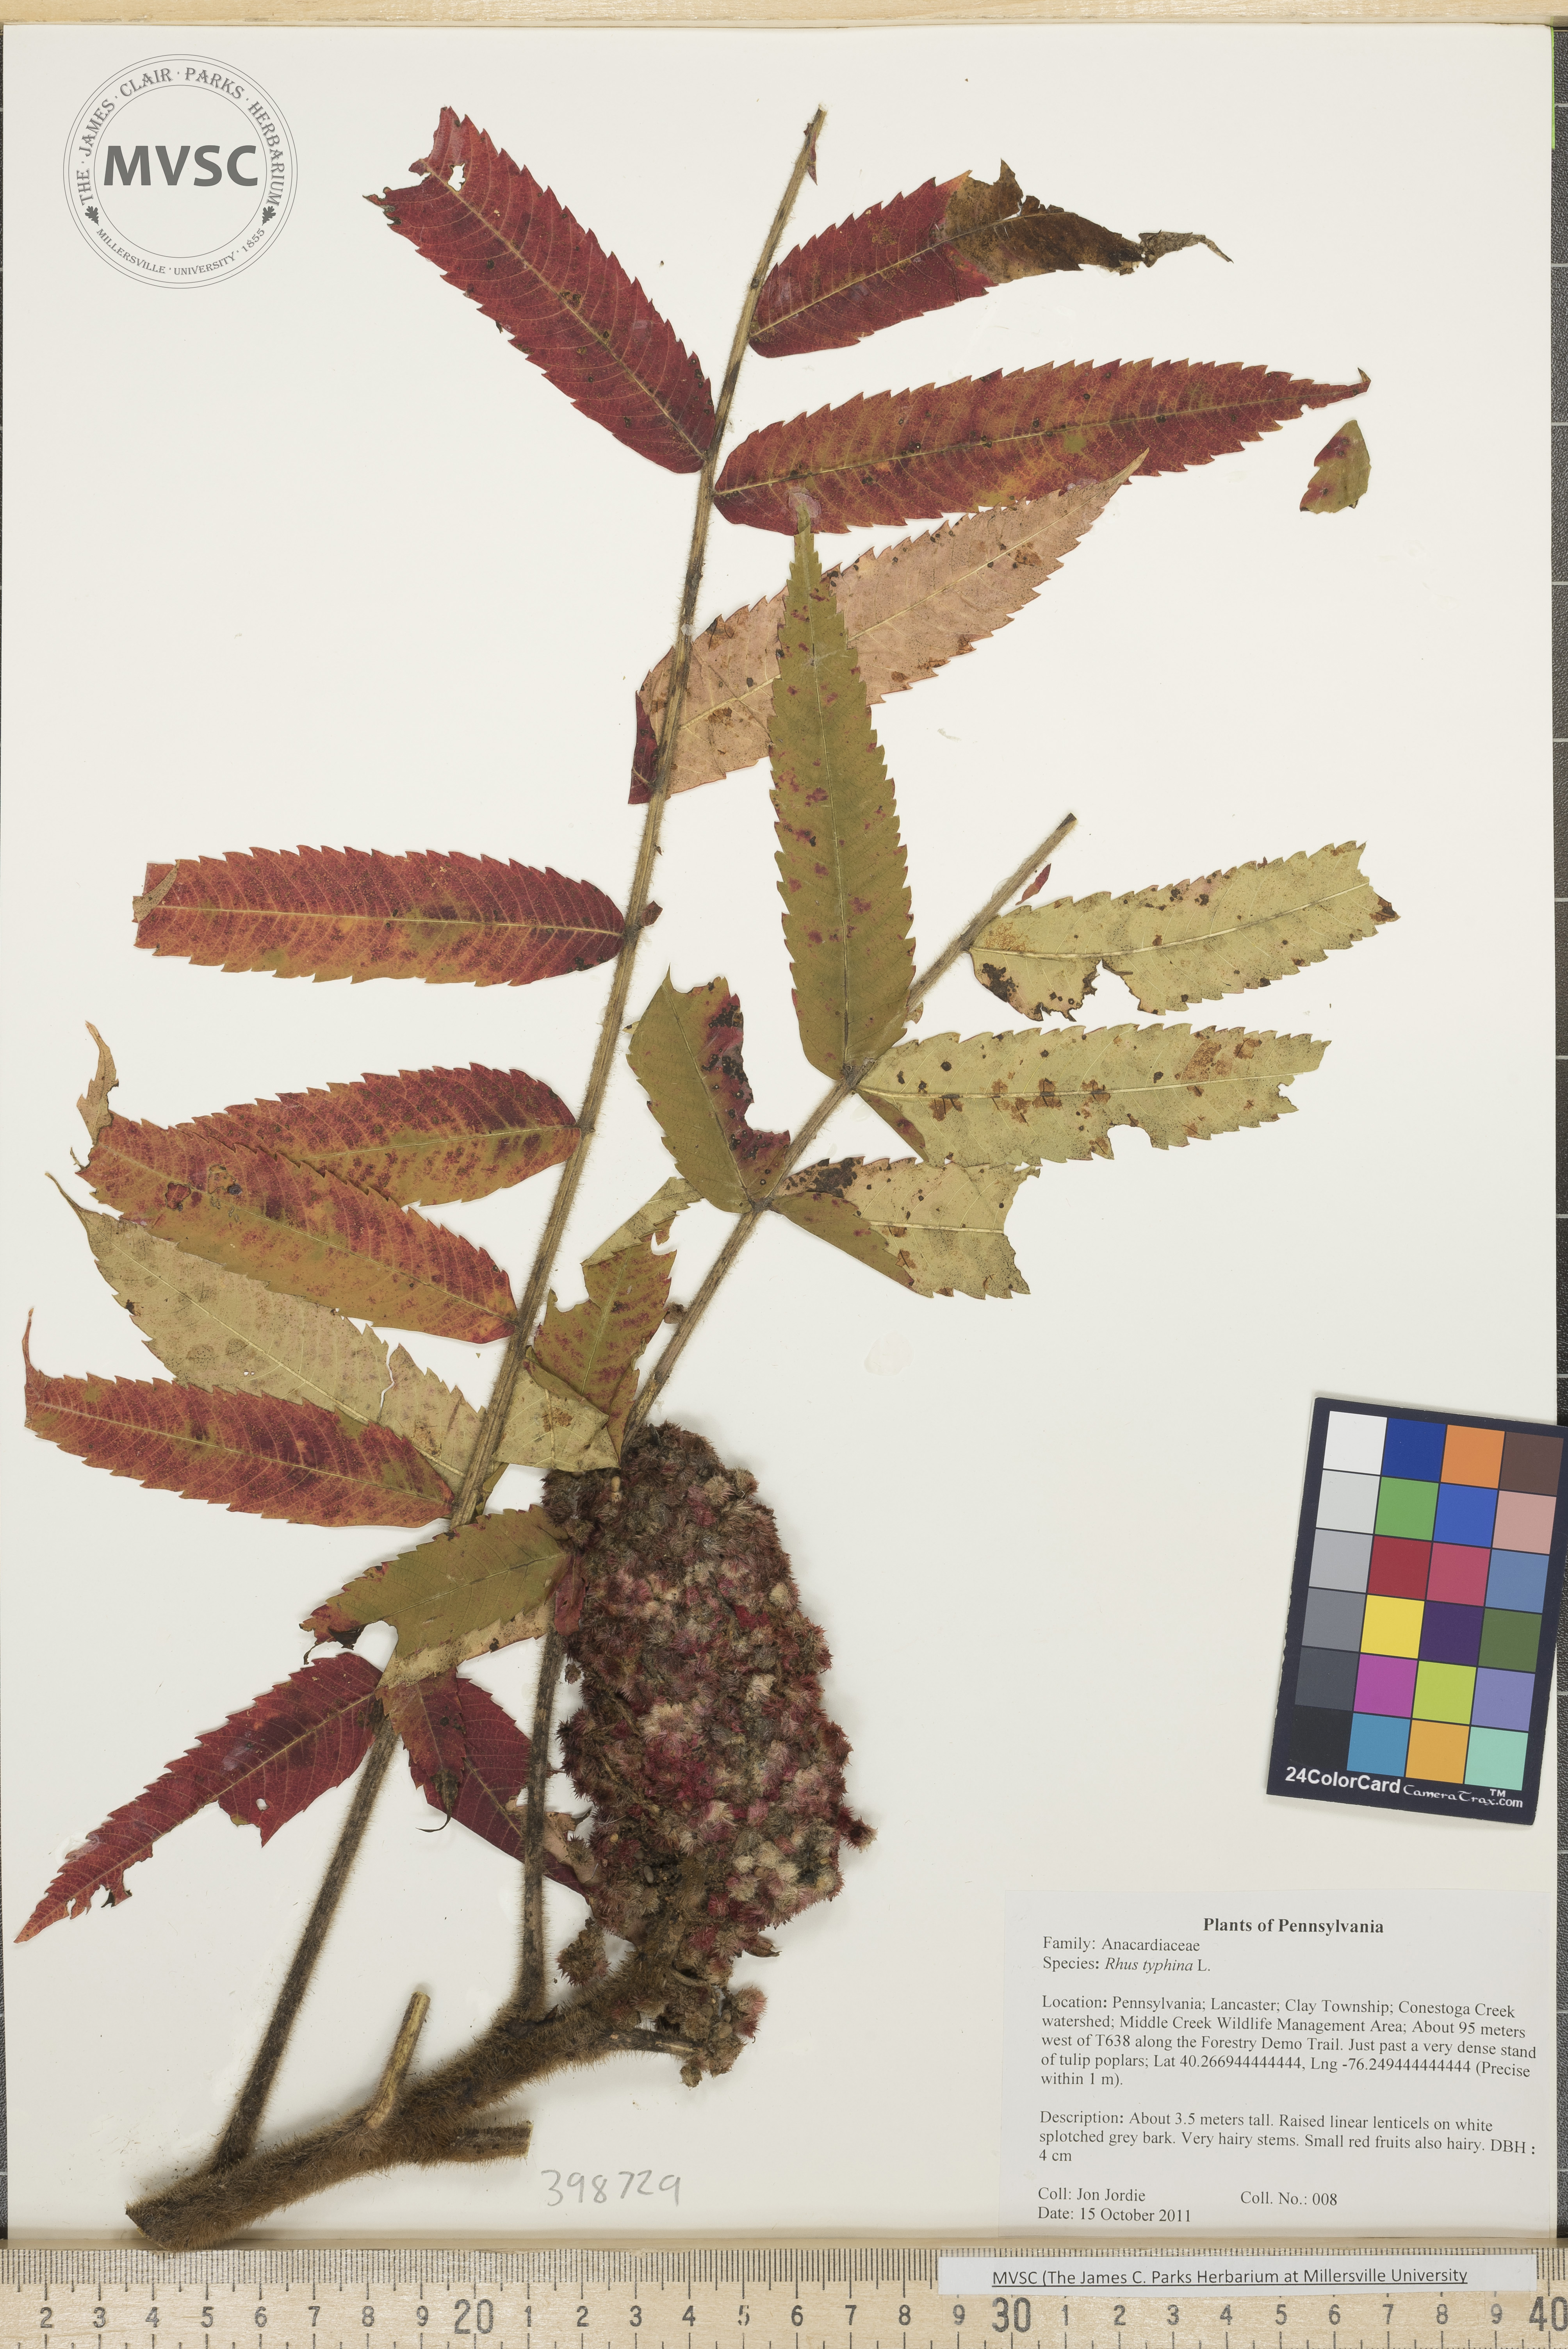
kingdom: Plantae
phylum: Tracheophyta
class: Magnoliopsida
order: Sapindales
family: Anacardiaceae
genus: Rhus
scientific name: Rhus typhina
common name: Staghorn sumac
